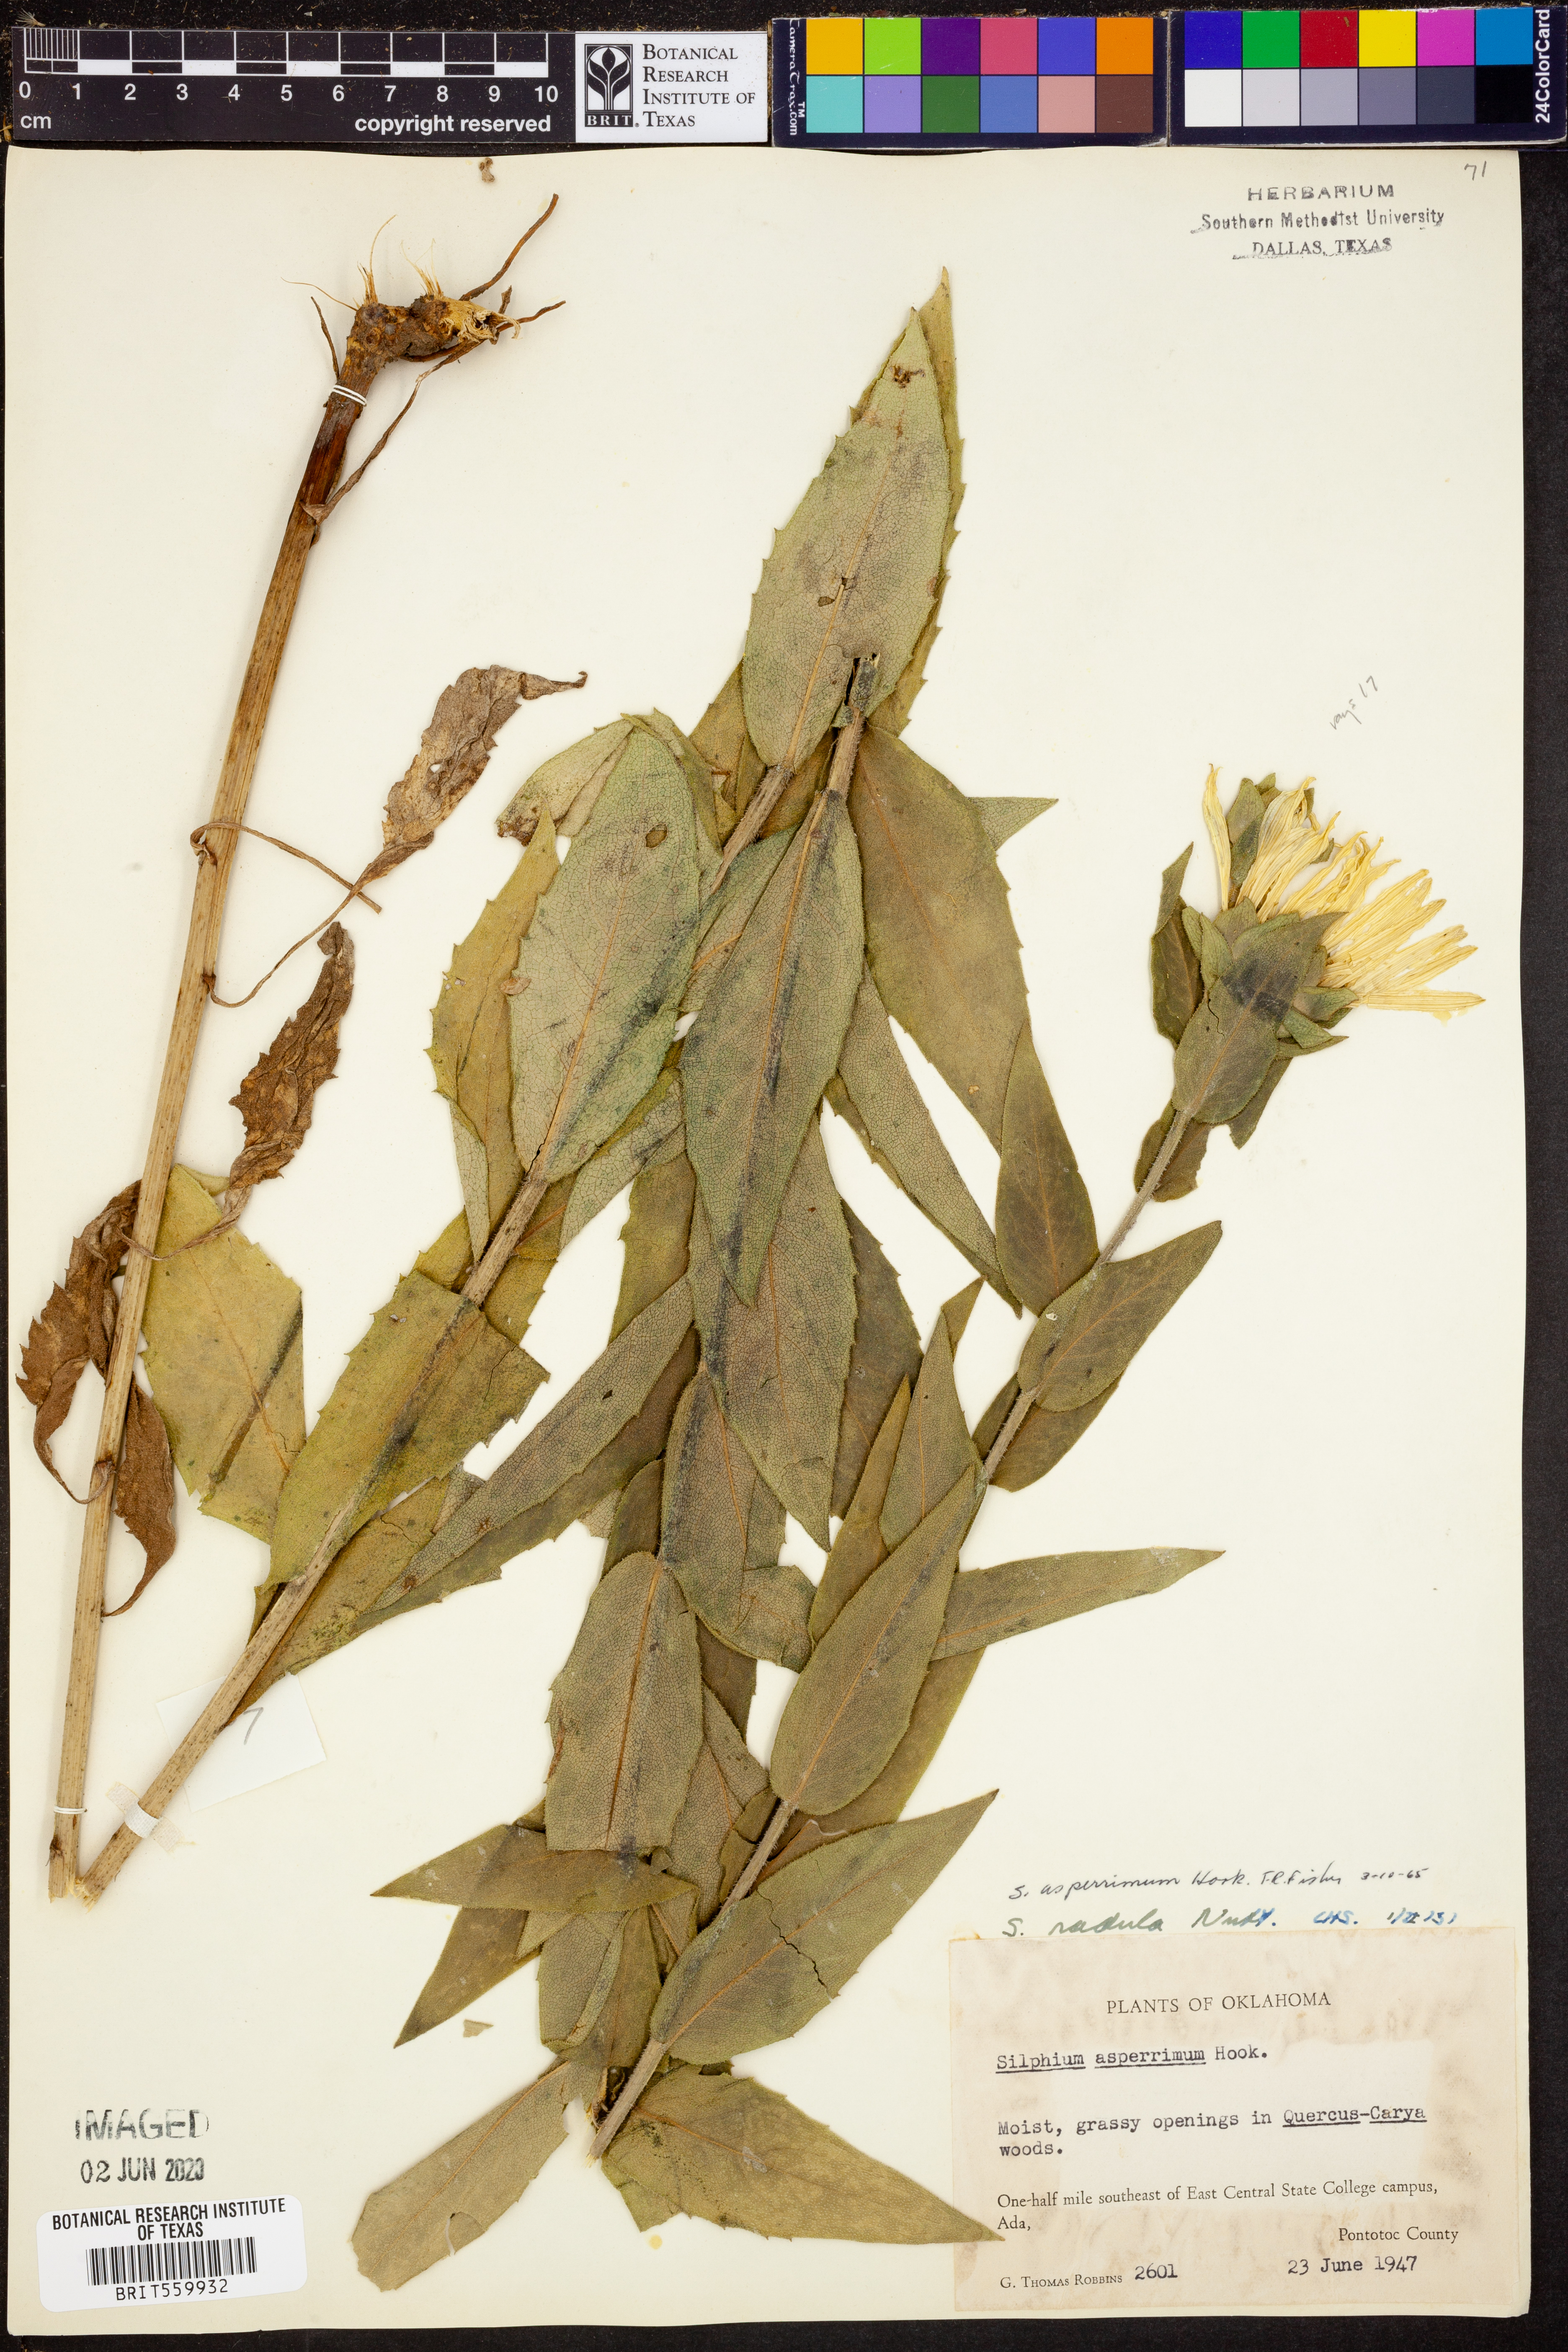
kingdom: Plantae
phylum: Tracheophyta
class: Magnoliopsida
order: Asterales
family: Asteraceae
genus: Silphium
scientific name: Silphium asperrimum
